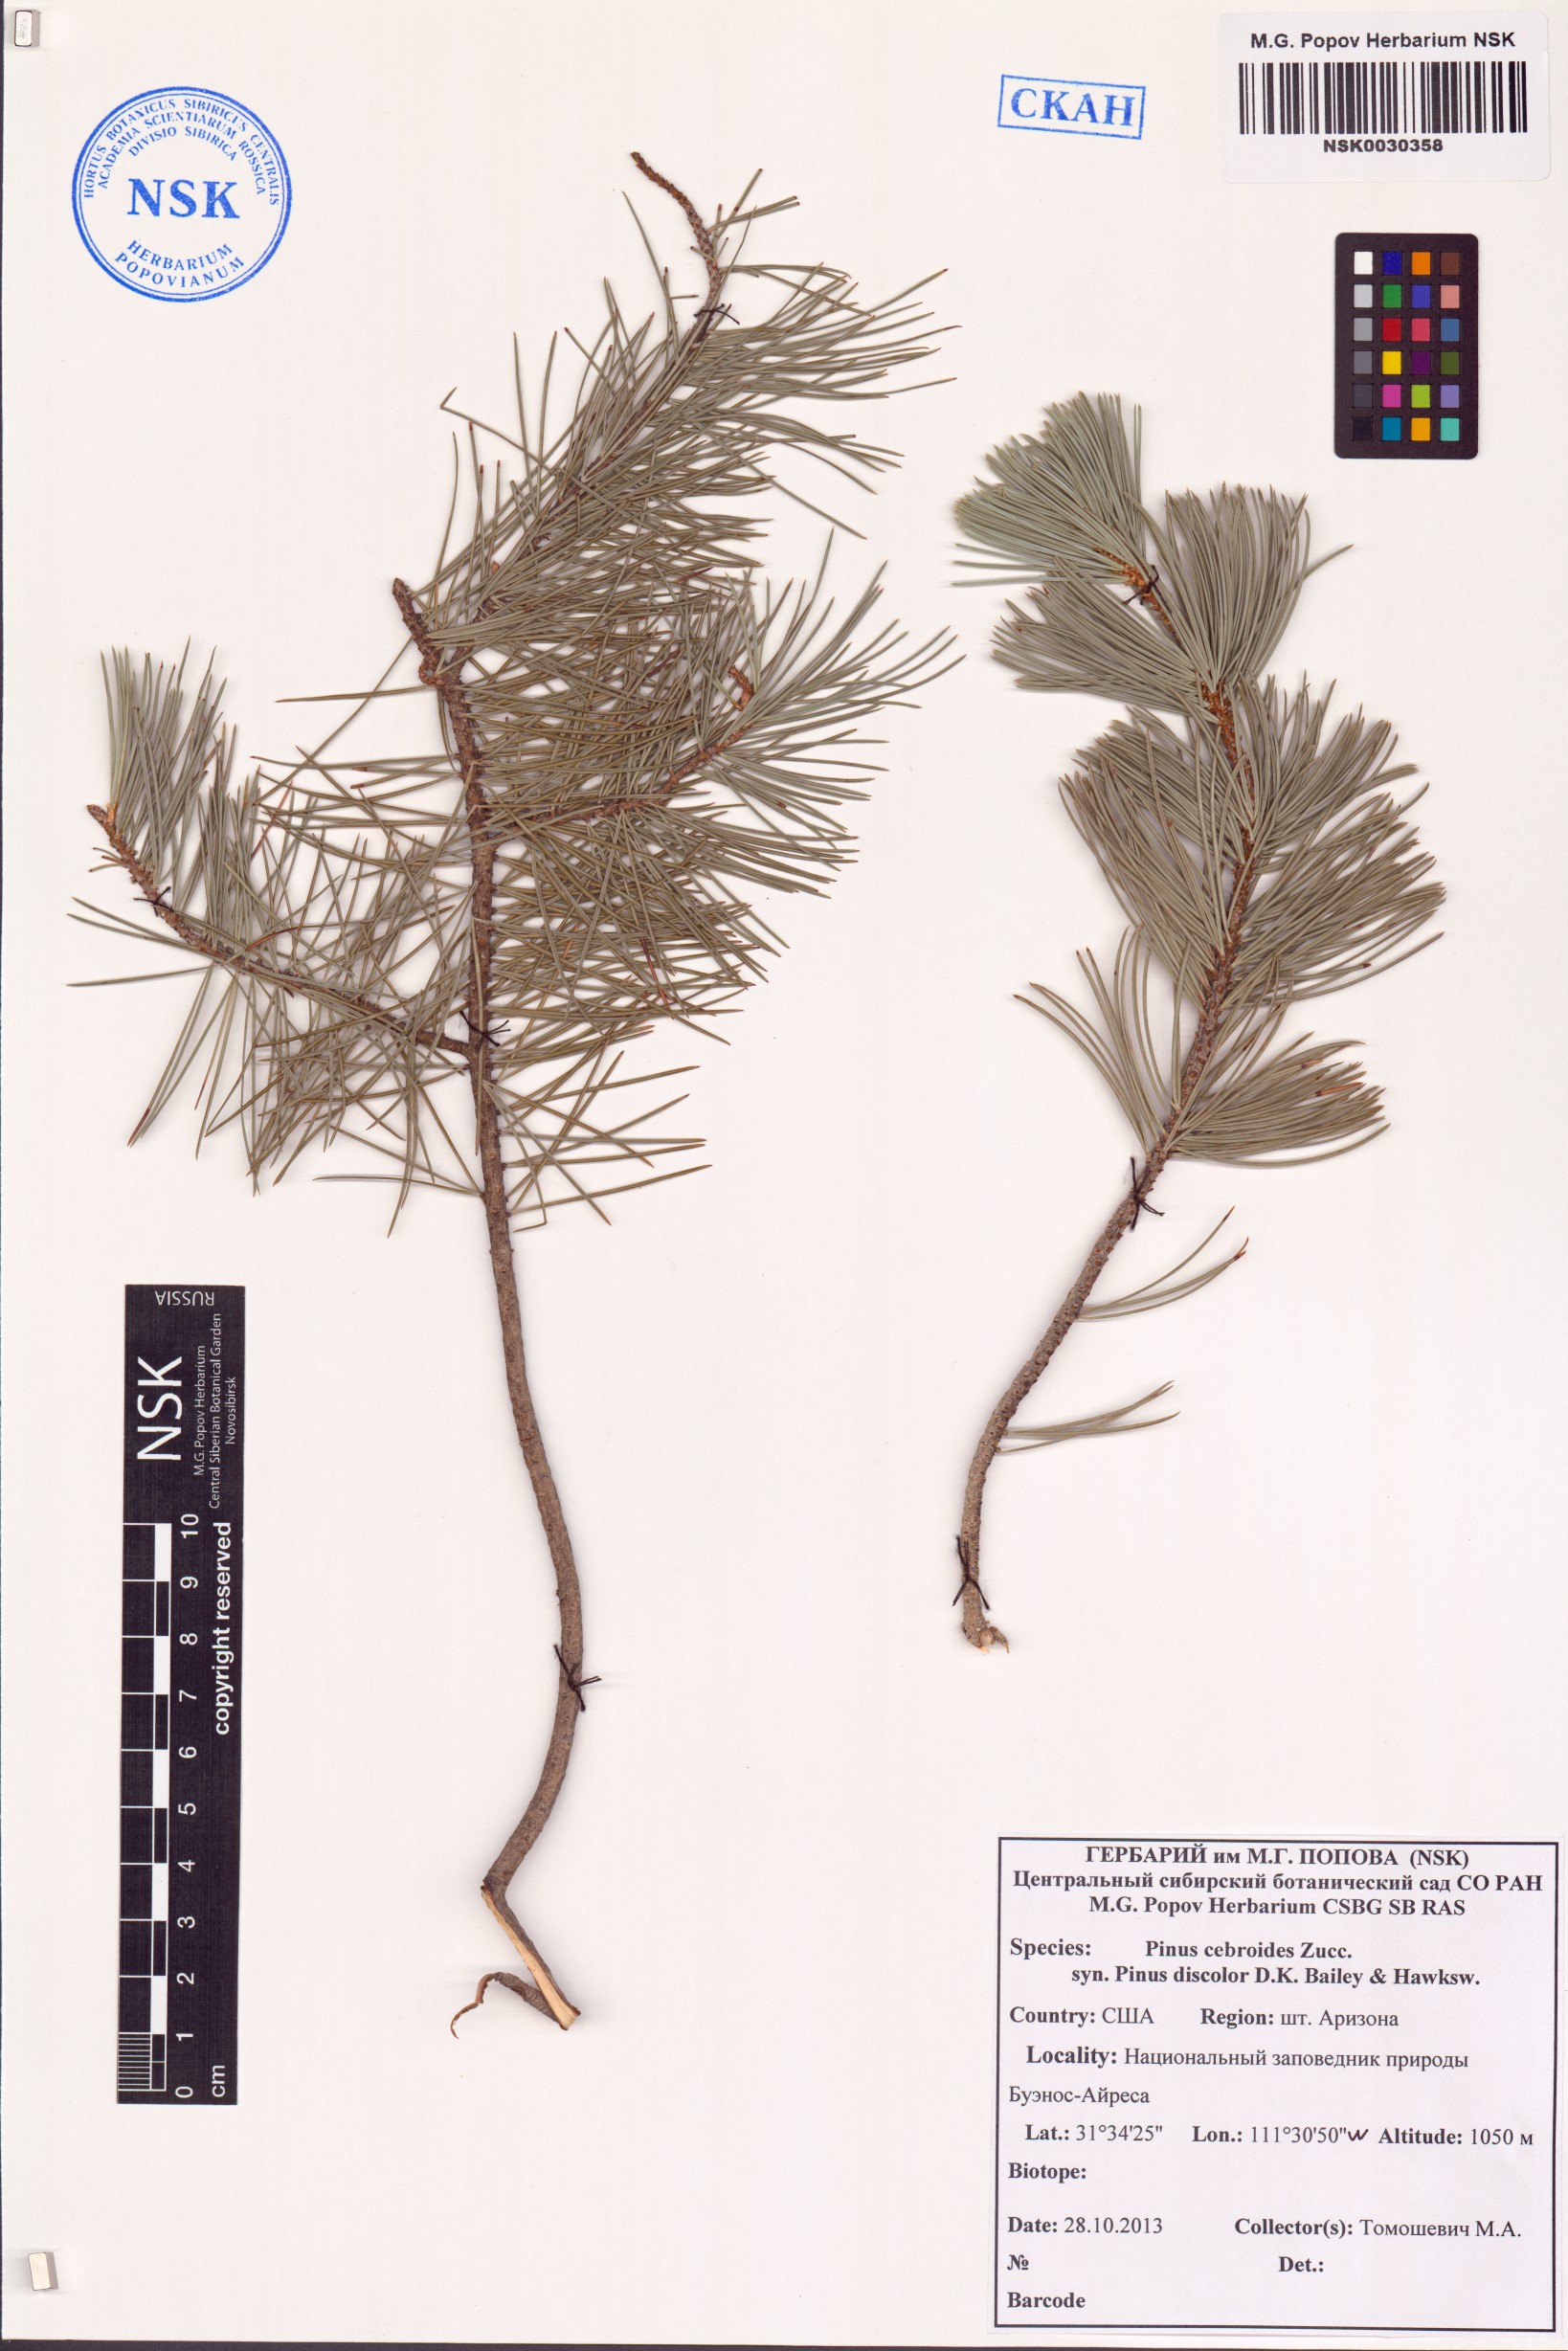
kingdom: Plantae
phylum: Tracheophyta
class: Pinopsida
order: Pinales
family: Pinaceae
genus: Pinus
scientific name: Pinus cembroides
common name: Mexican nut pine
